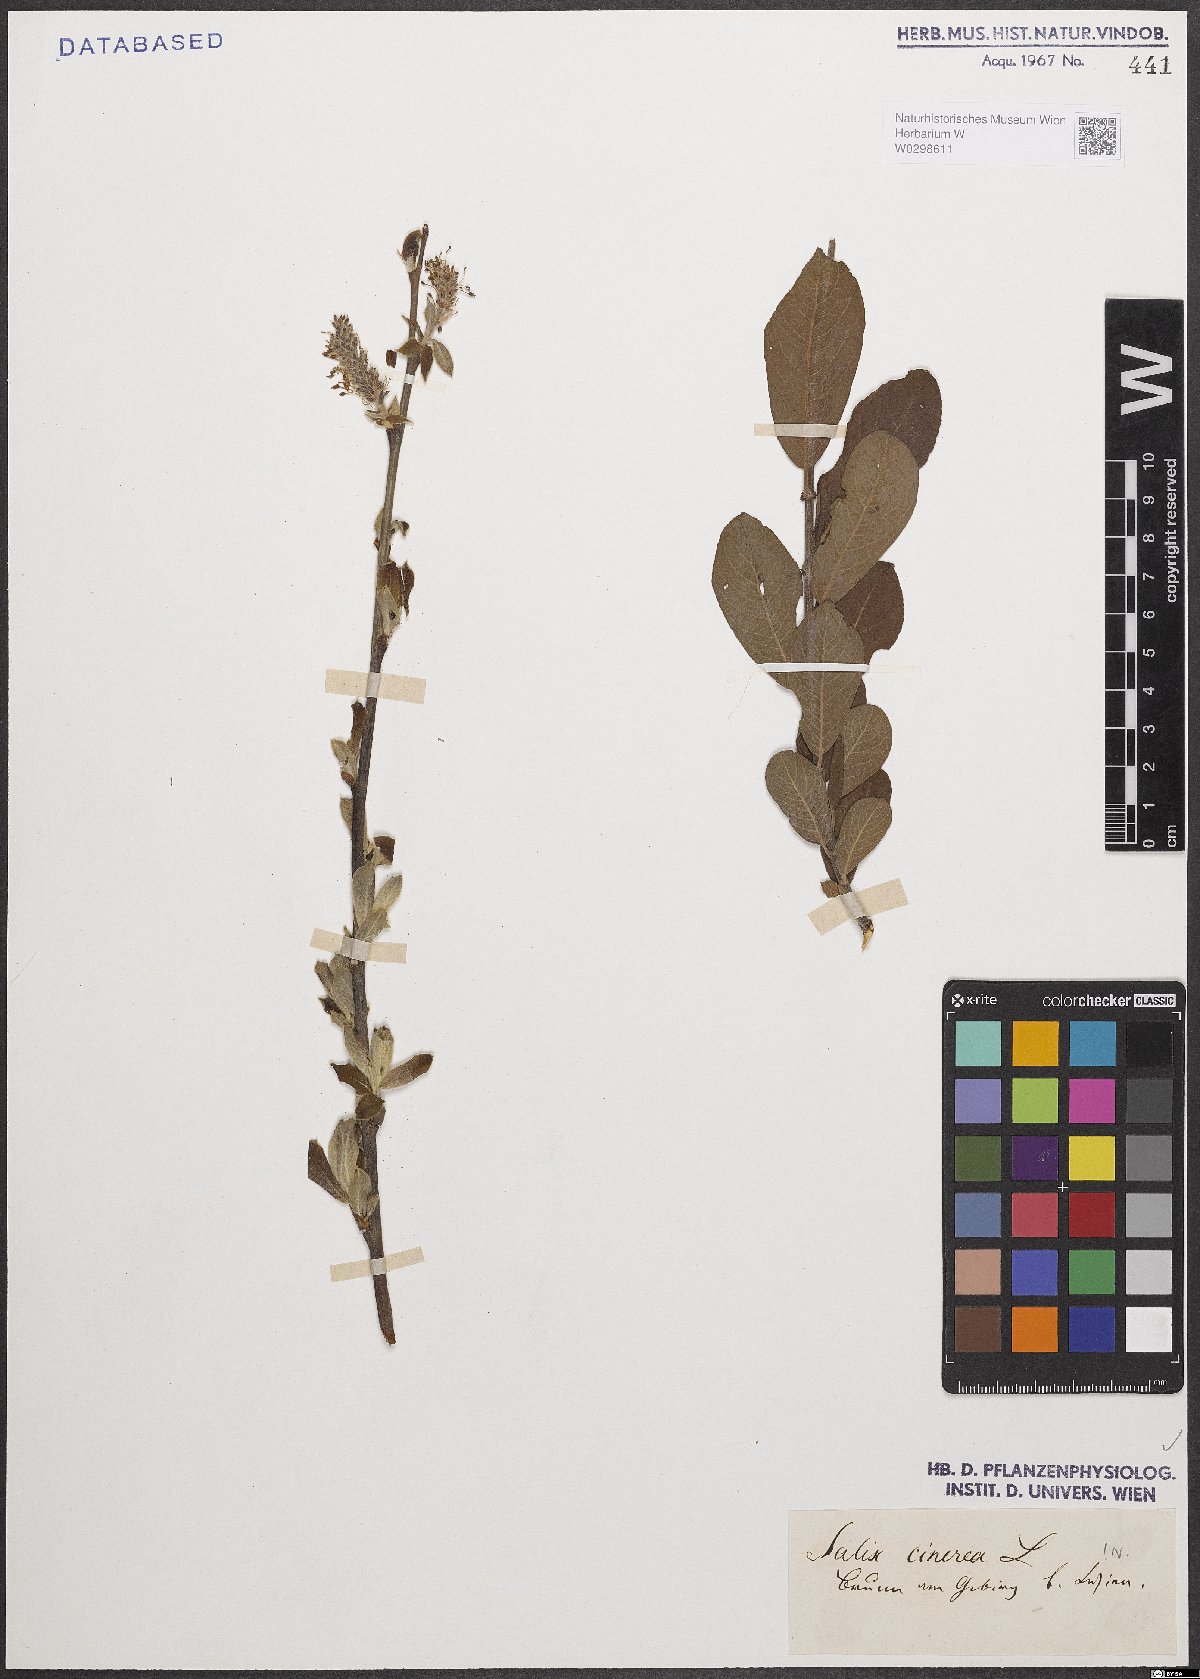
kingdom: Plantae
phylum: Tracheophyta
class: Magnoliopsida
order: Malpighiales
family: Salicaceae
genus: Salix
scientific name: Salix cinerea
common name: Common sallow
